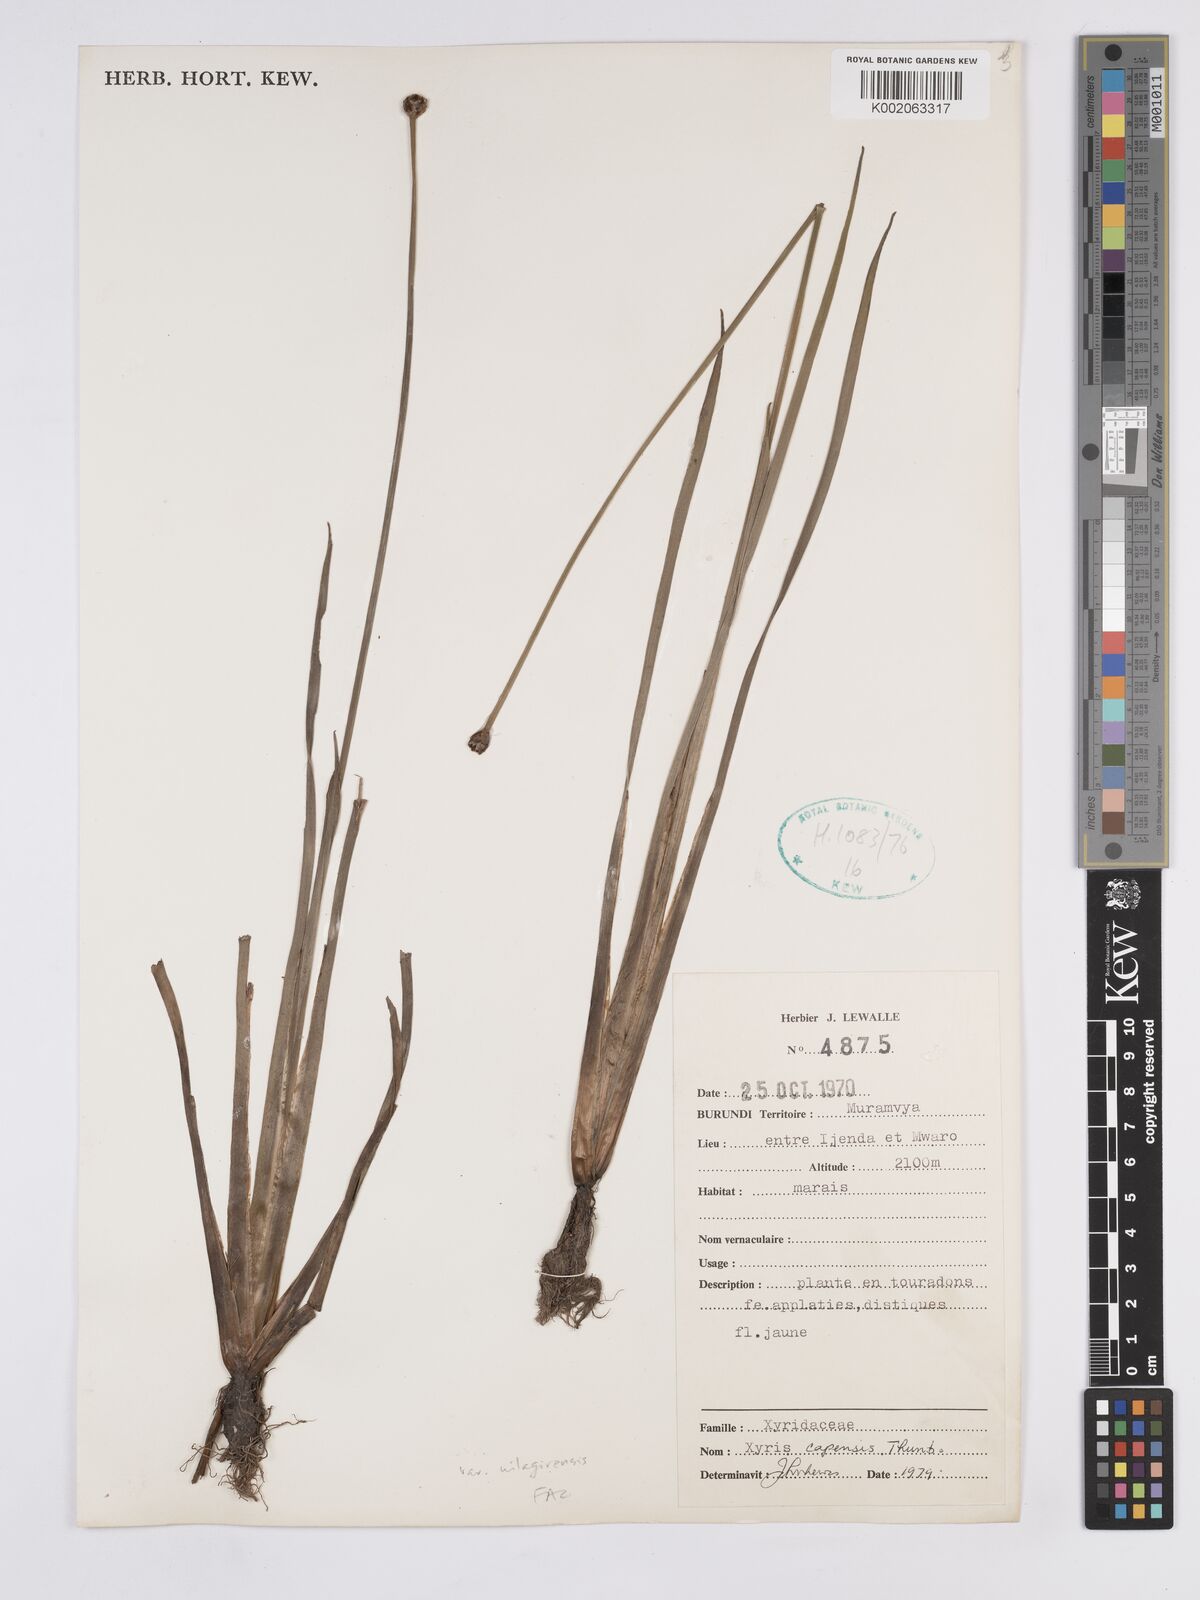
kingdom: Plantae
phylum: Tracheophyta
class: Liliopsida
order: Poales
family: Xyridaceae
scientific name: Xyridaceae
